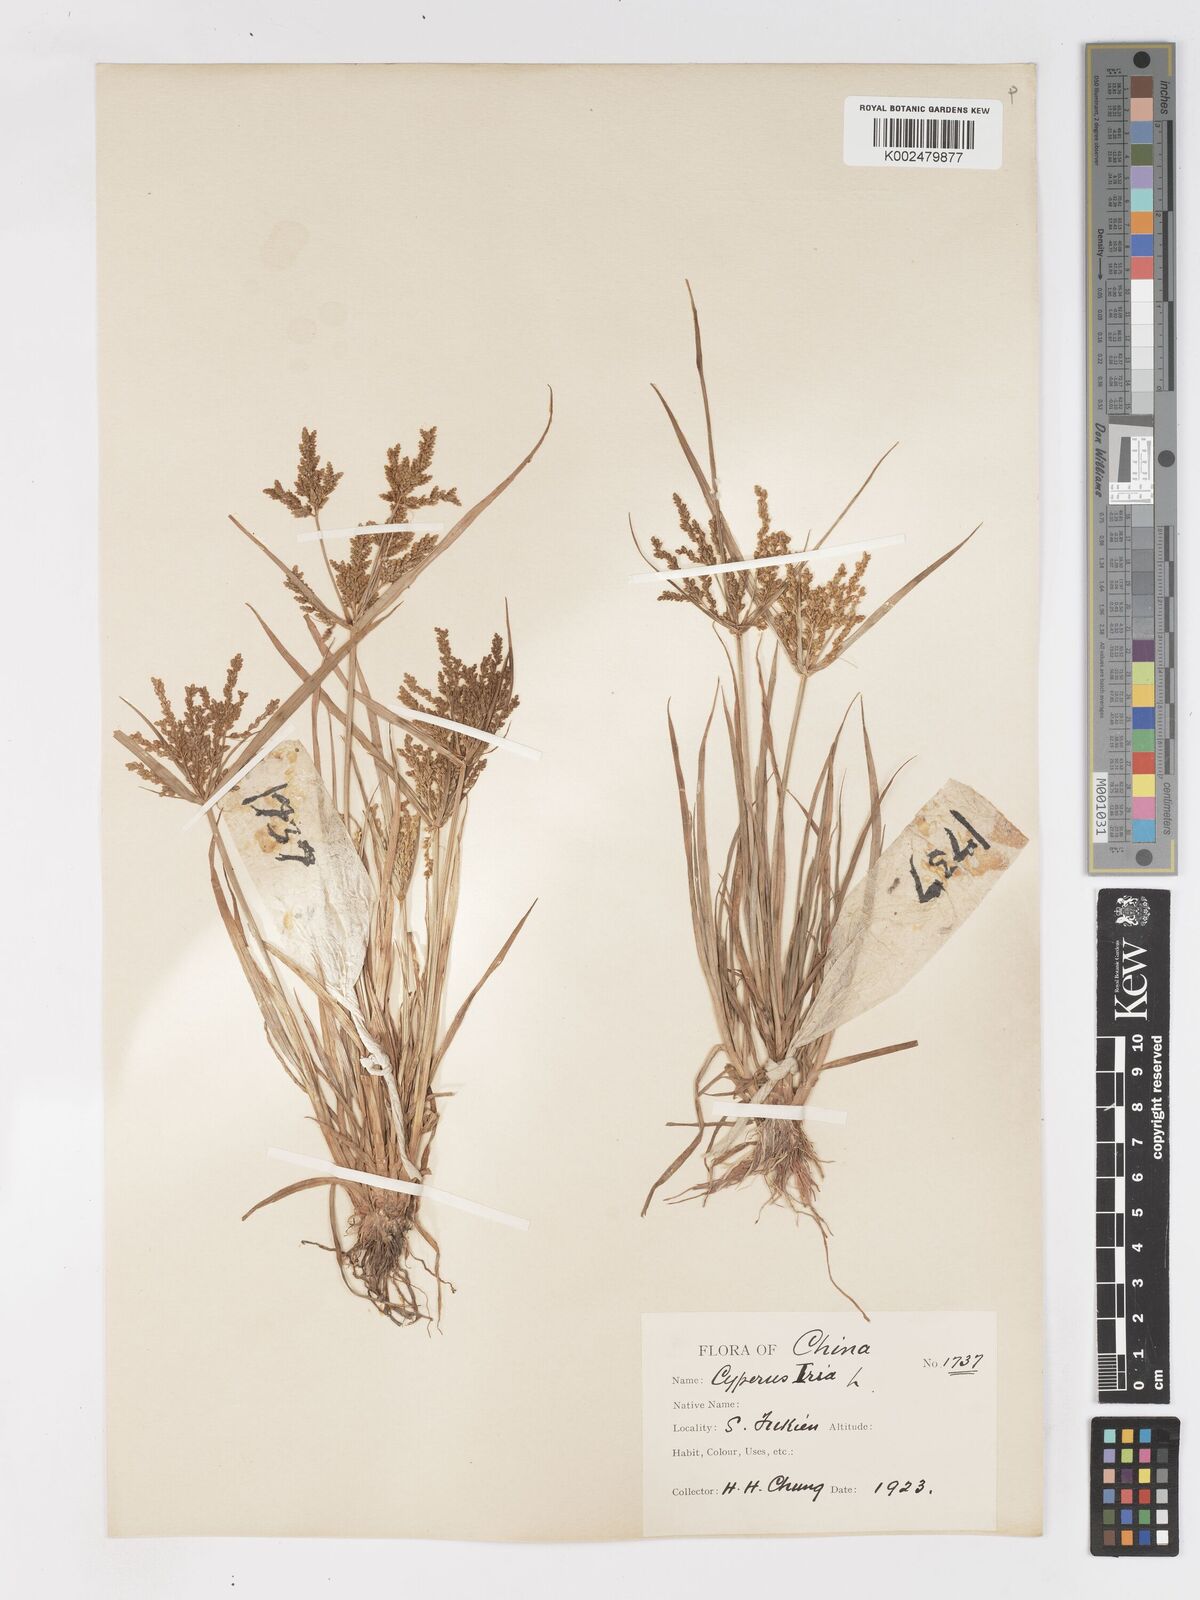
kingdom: Plantae
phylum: Tracheophyta
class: Liliopsida
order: Poales
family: Cyperaceae
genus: Cyperus
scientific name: Cyperus iria
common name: Ricefield flatsedge
